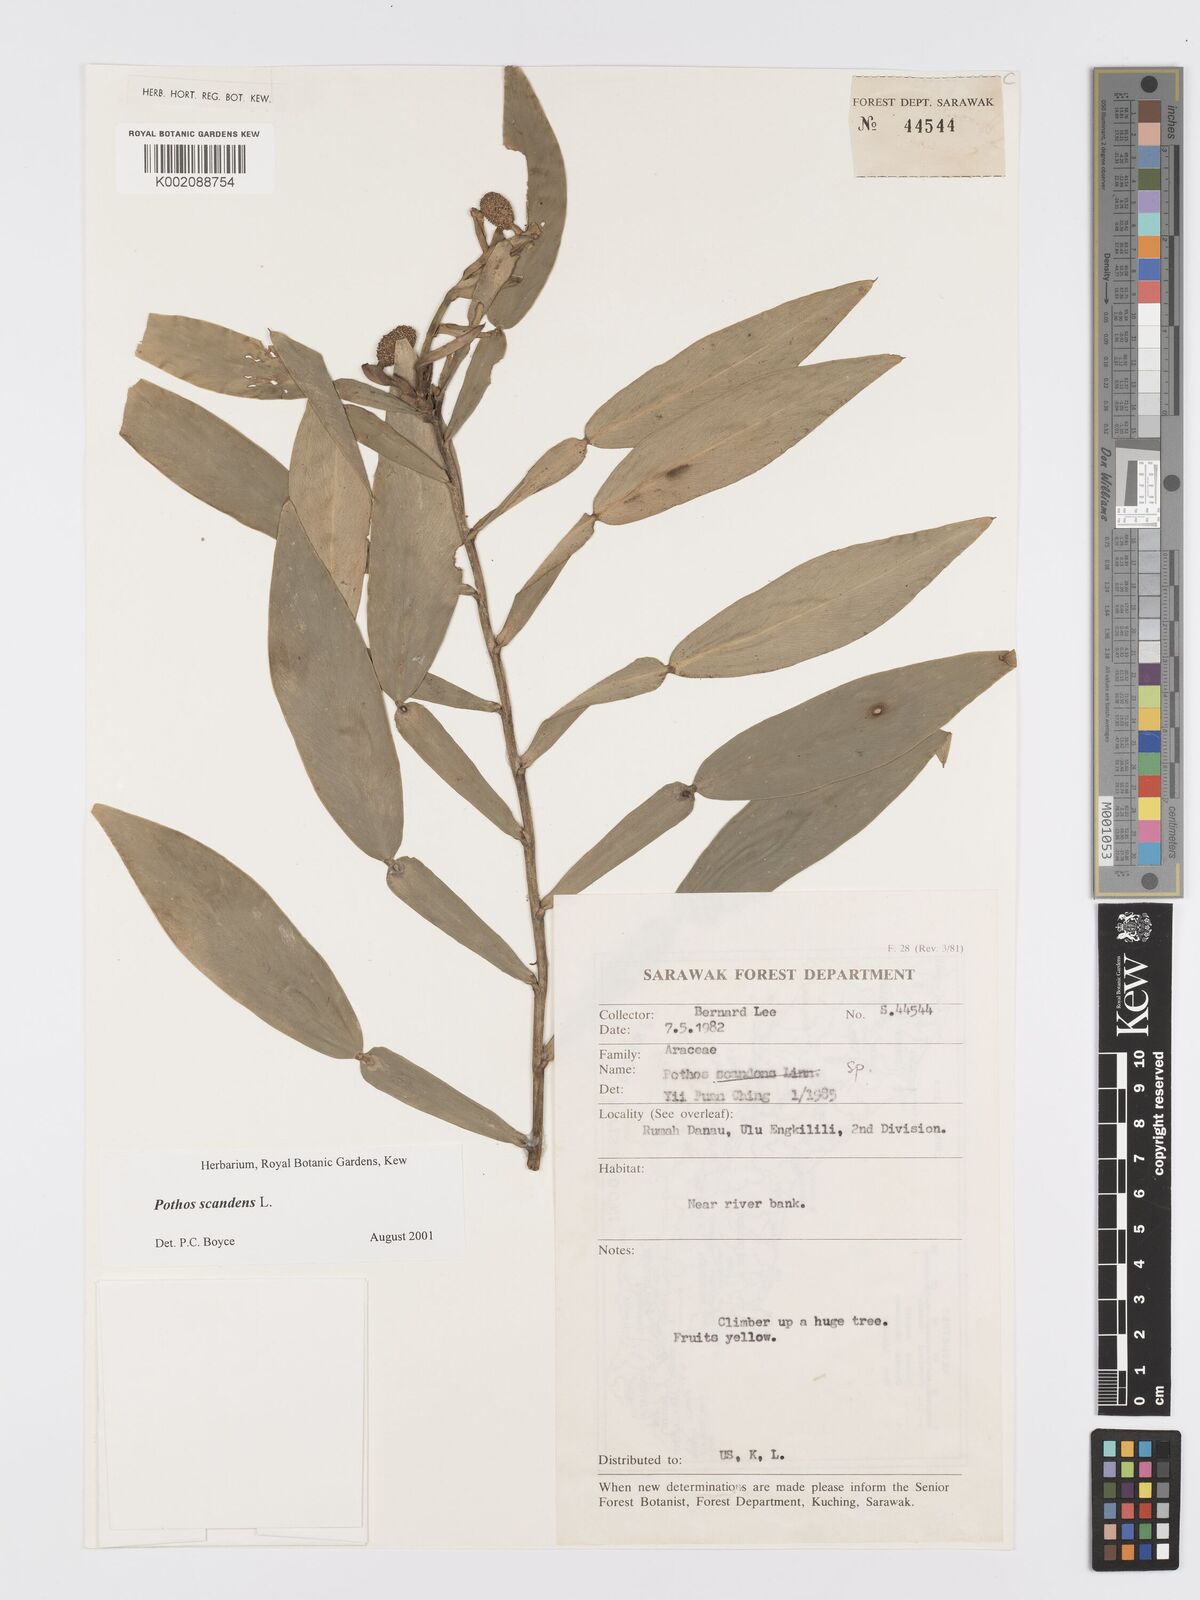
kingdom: Plantae
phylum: Tracheophyta
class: Liliopsida
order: Alismatales
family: Araceae
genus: Pothos
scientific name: Pothos scandens
